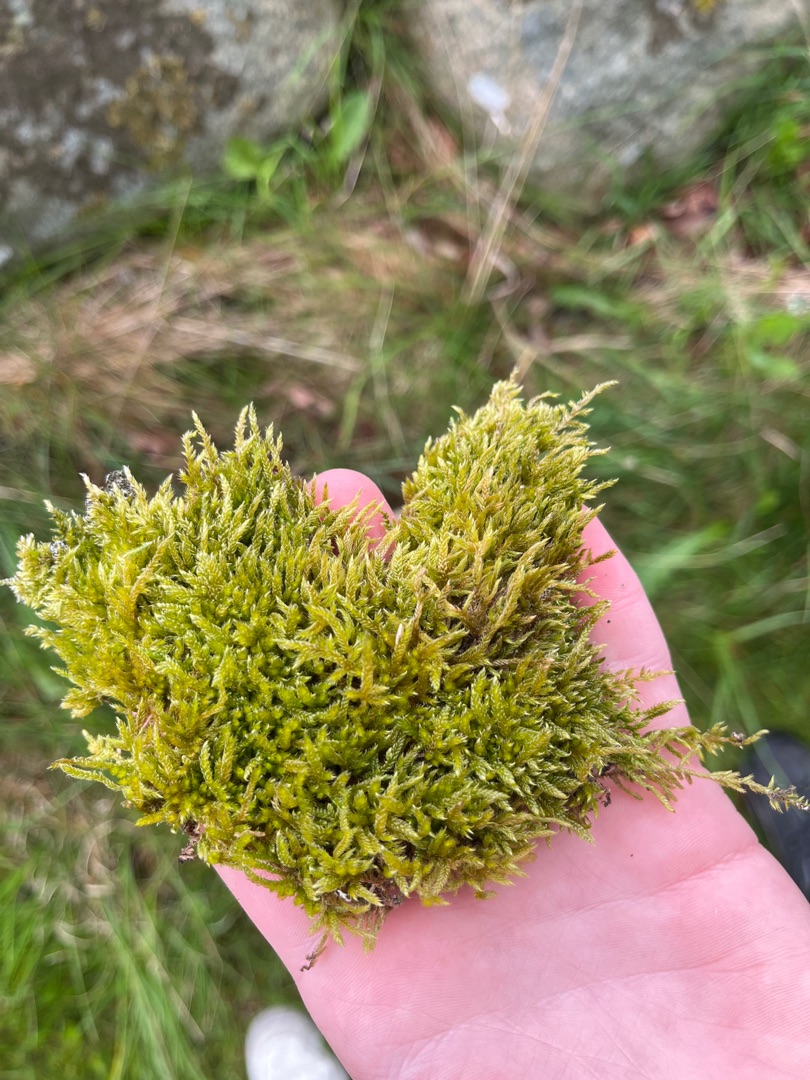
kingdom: Plantae
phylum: Bryophyta
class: Bryopsida
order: Hypnales
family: Hypnaceae
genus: Hypnum
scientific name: Hypnum cupressiforme
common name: Almindelig cypresmos
